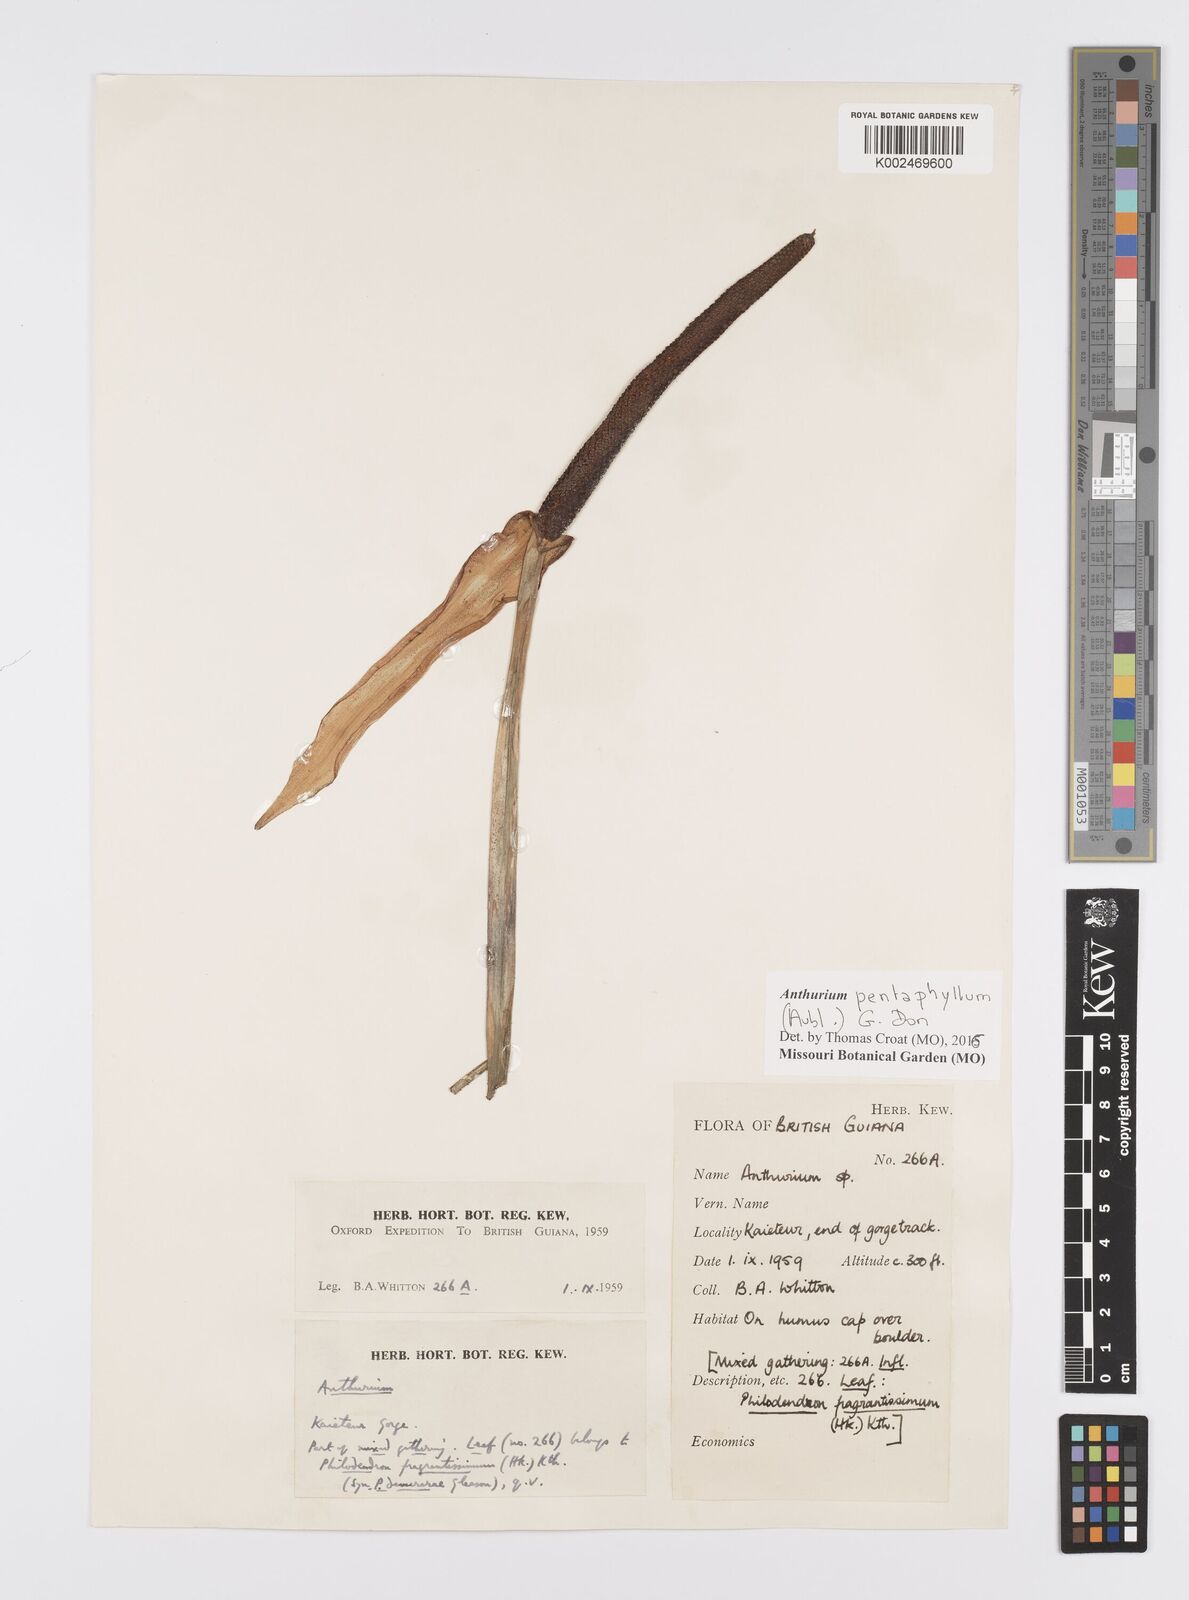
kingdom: Plantae
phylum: Tracheophyta
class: Liliopsida
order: Alismatales
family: Araceae
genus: Anthurium
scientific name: Anthurium pentaphyllum
